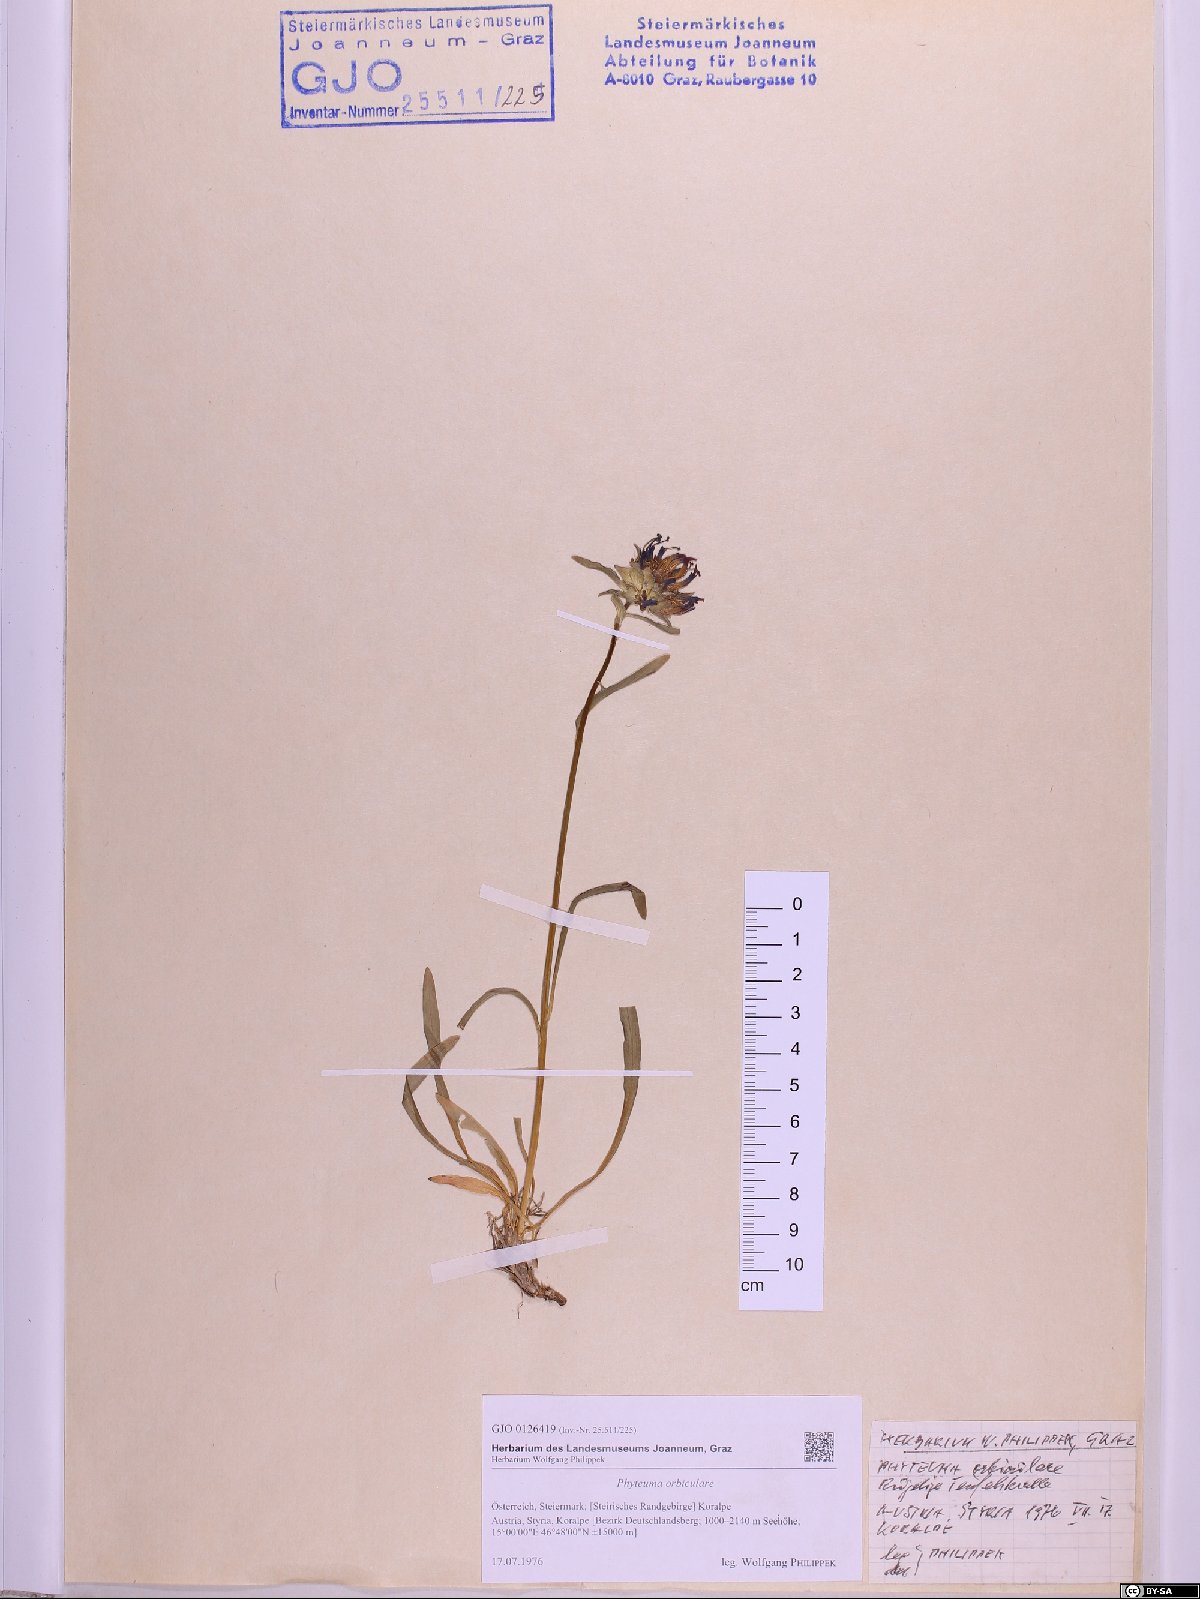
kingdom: Plantae
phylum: Tracheophyta
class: Magnoliopsida
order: Asterales
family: Campanulaceae
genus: Phyteuma
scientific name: Phyteuma orbiculare
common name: Round-headed rampion
